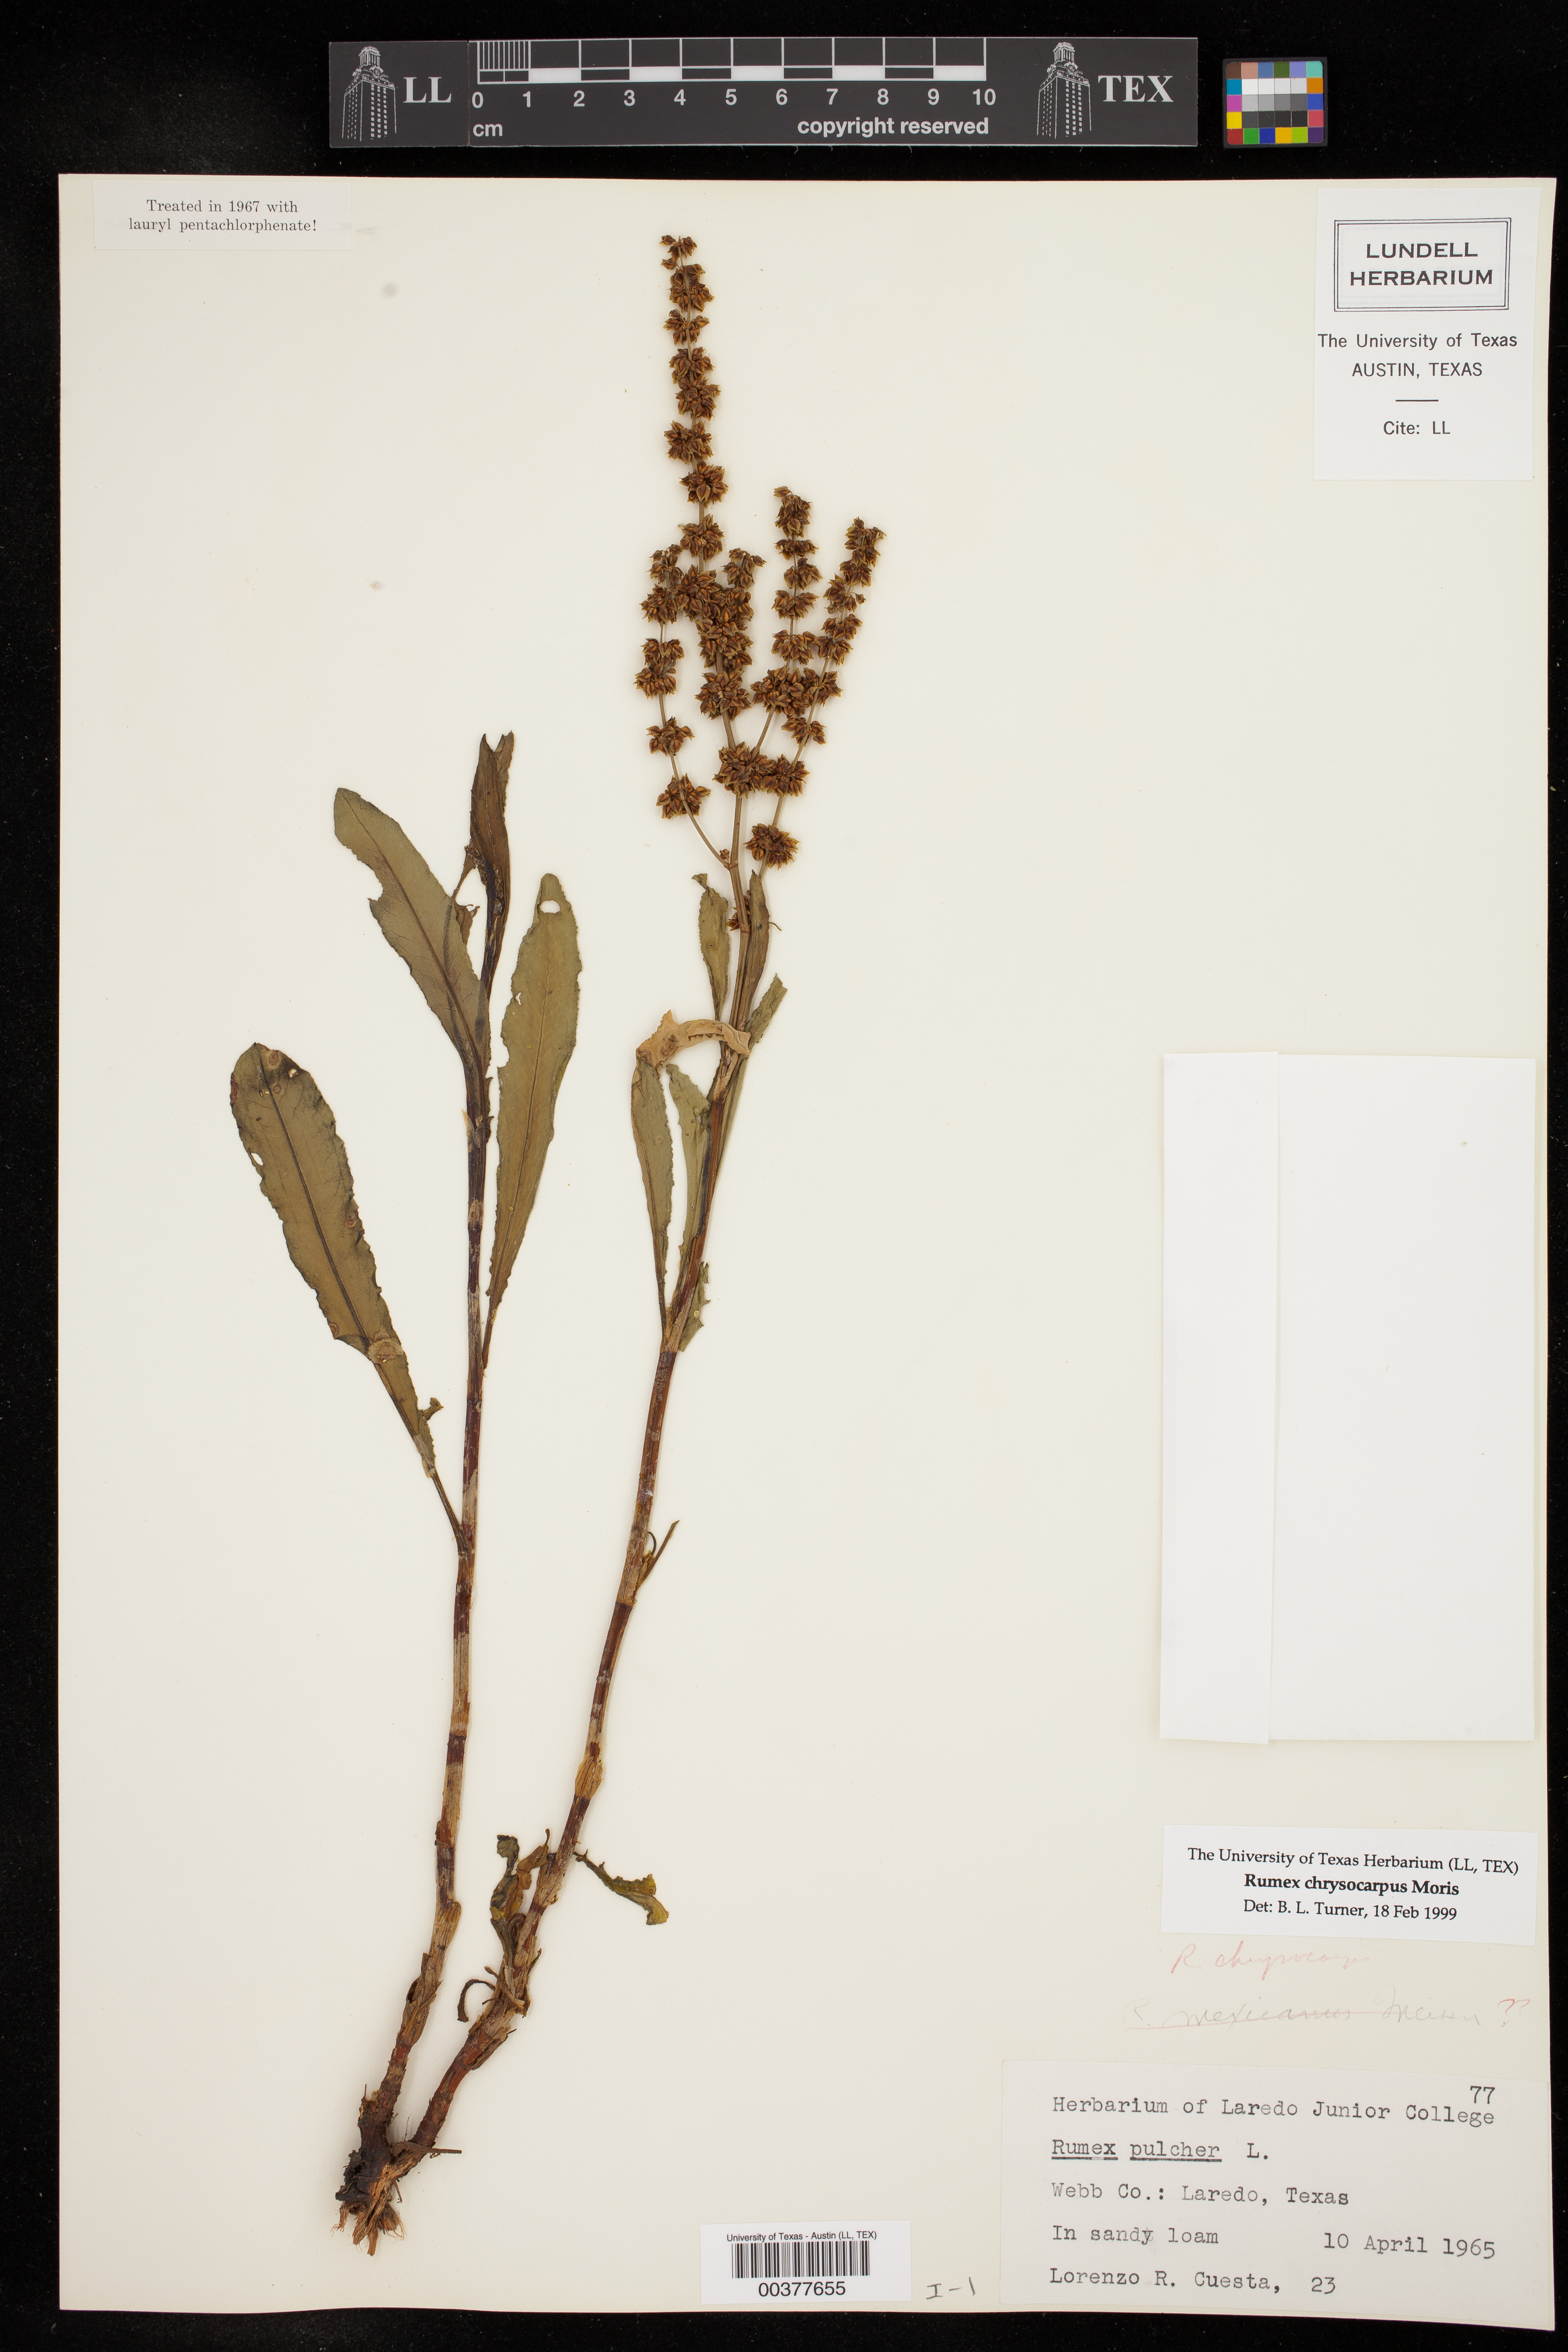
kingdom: Plantae
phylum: Tracheophyta
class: Magnoliopsida
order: Caryophyllales
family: Polygonaceae
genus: Rumex
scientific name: Rumex chrysocarpus
